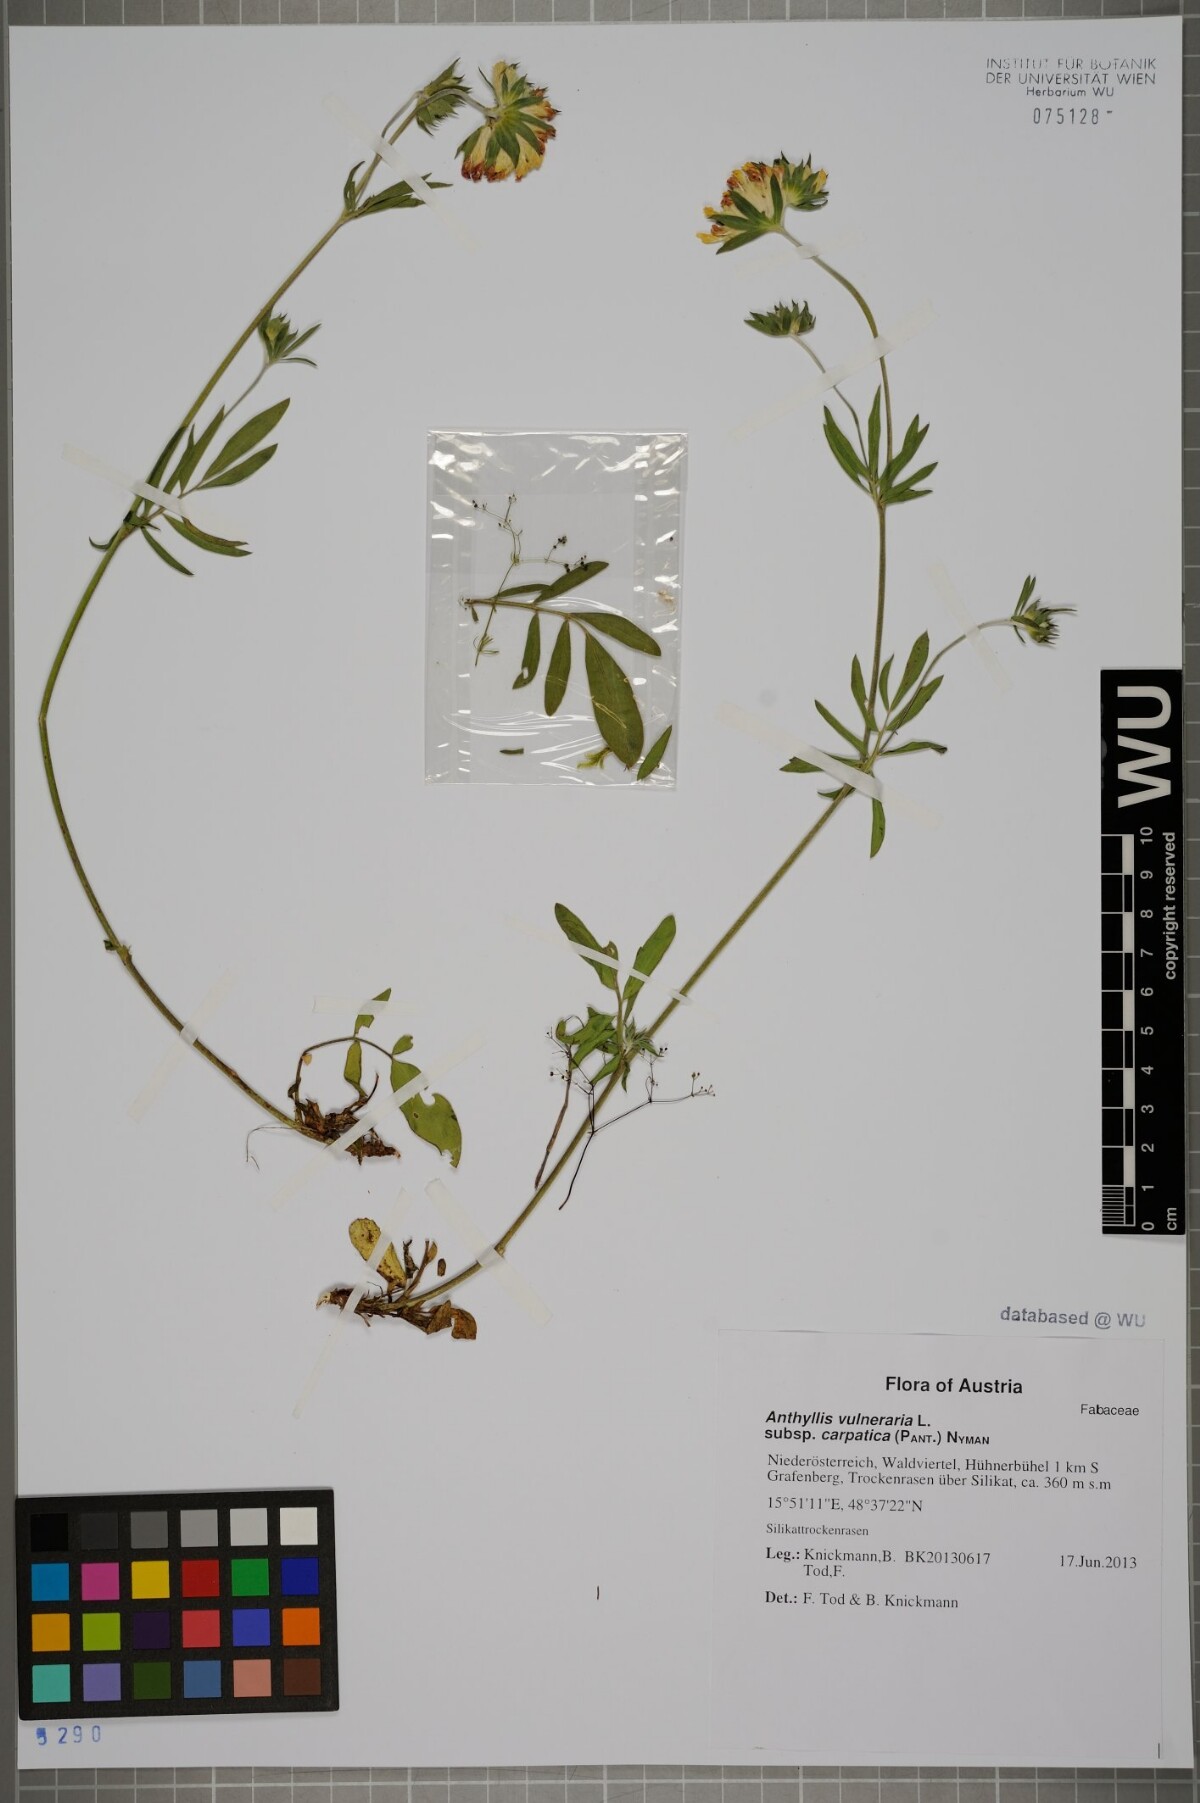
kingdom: Plantae
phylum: Tracheophyta
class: Magnoliopsida
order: Fabales
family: Fabaceae
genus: Anthyllis
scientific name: Anthyllis vulneraria
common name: Kidney vetch
